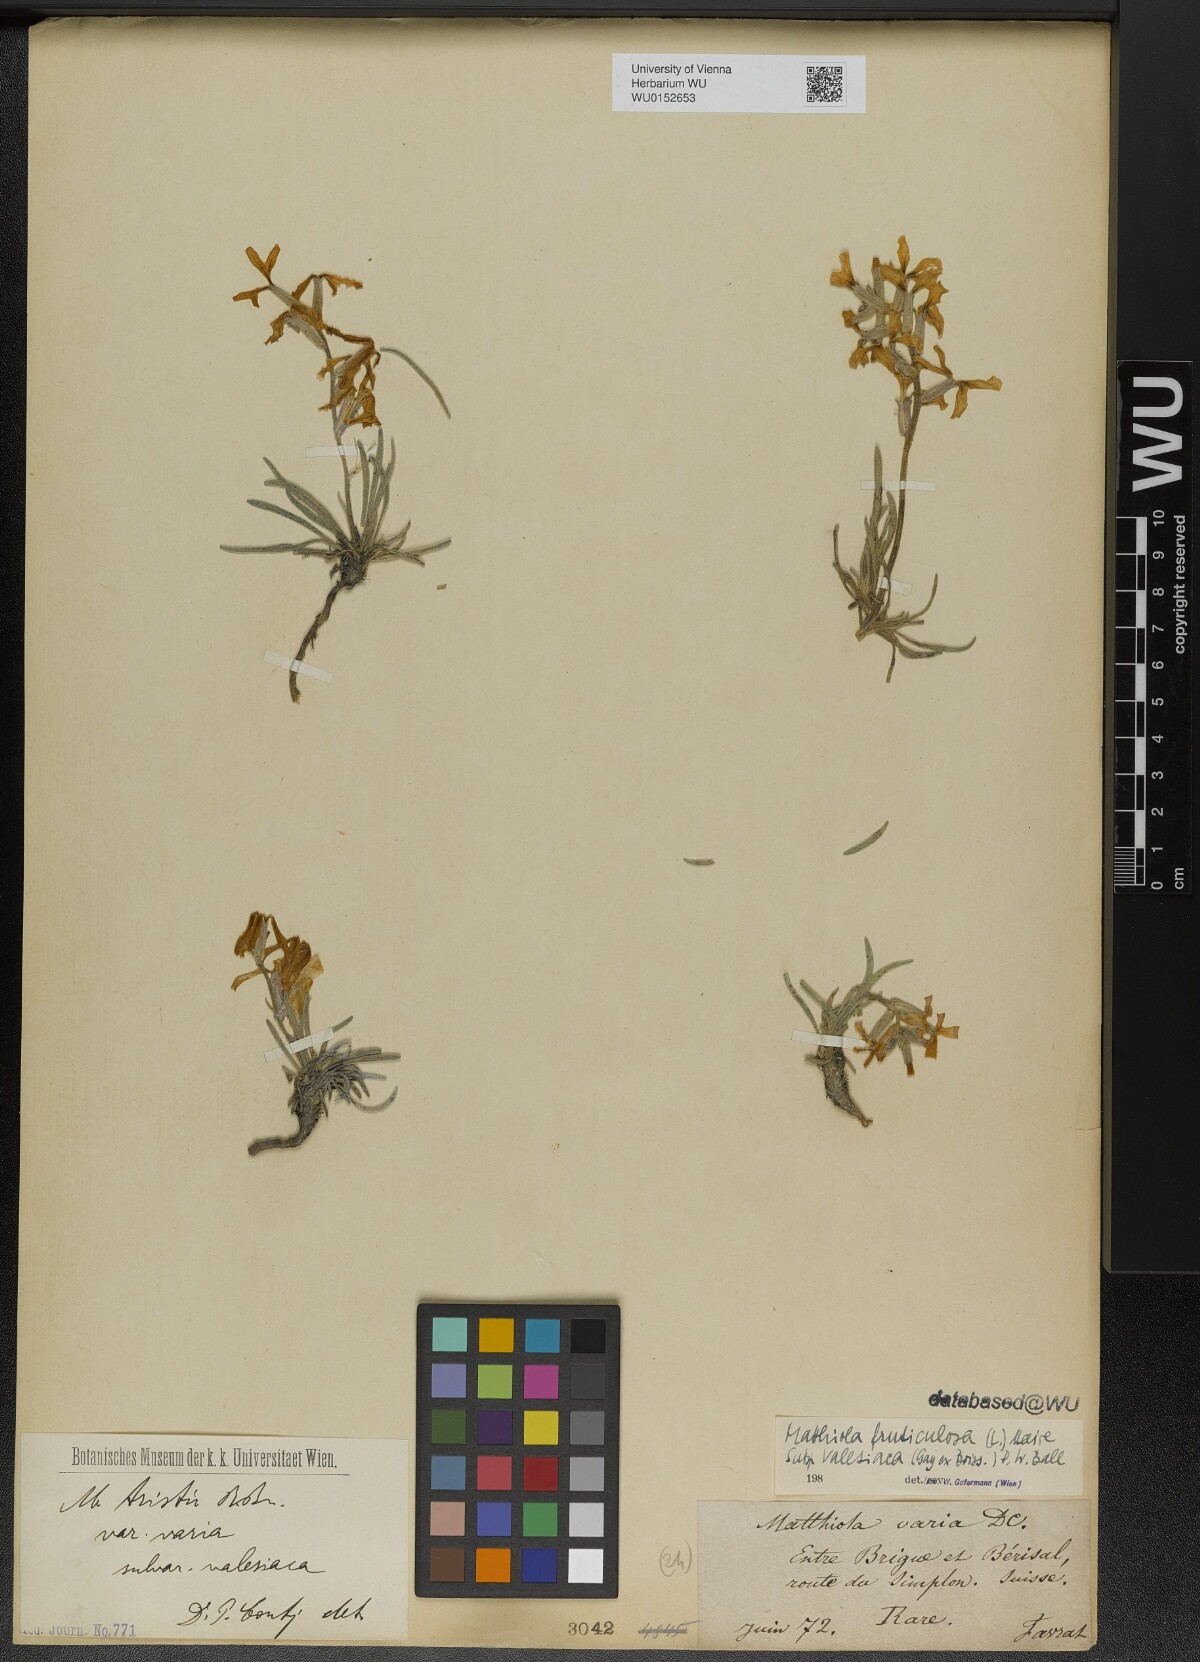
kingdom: Plantae
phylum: Tracheophyta
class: Magnoliopsida
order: Brassicales
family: Brassicaceae
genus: Matthiola
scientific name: Matthiola fruticulosa
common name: Sad stock
